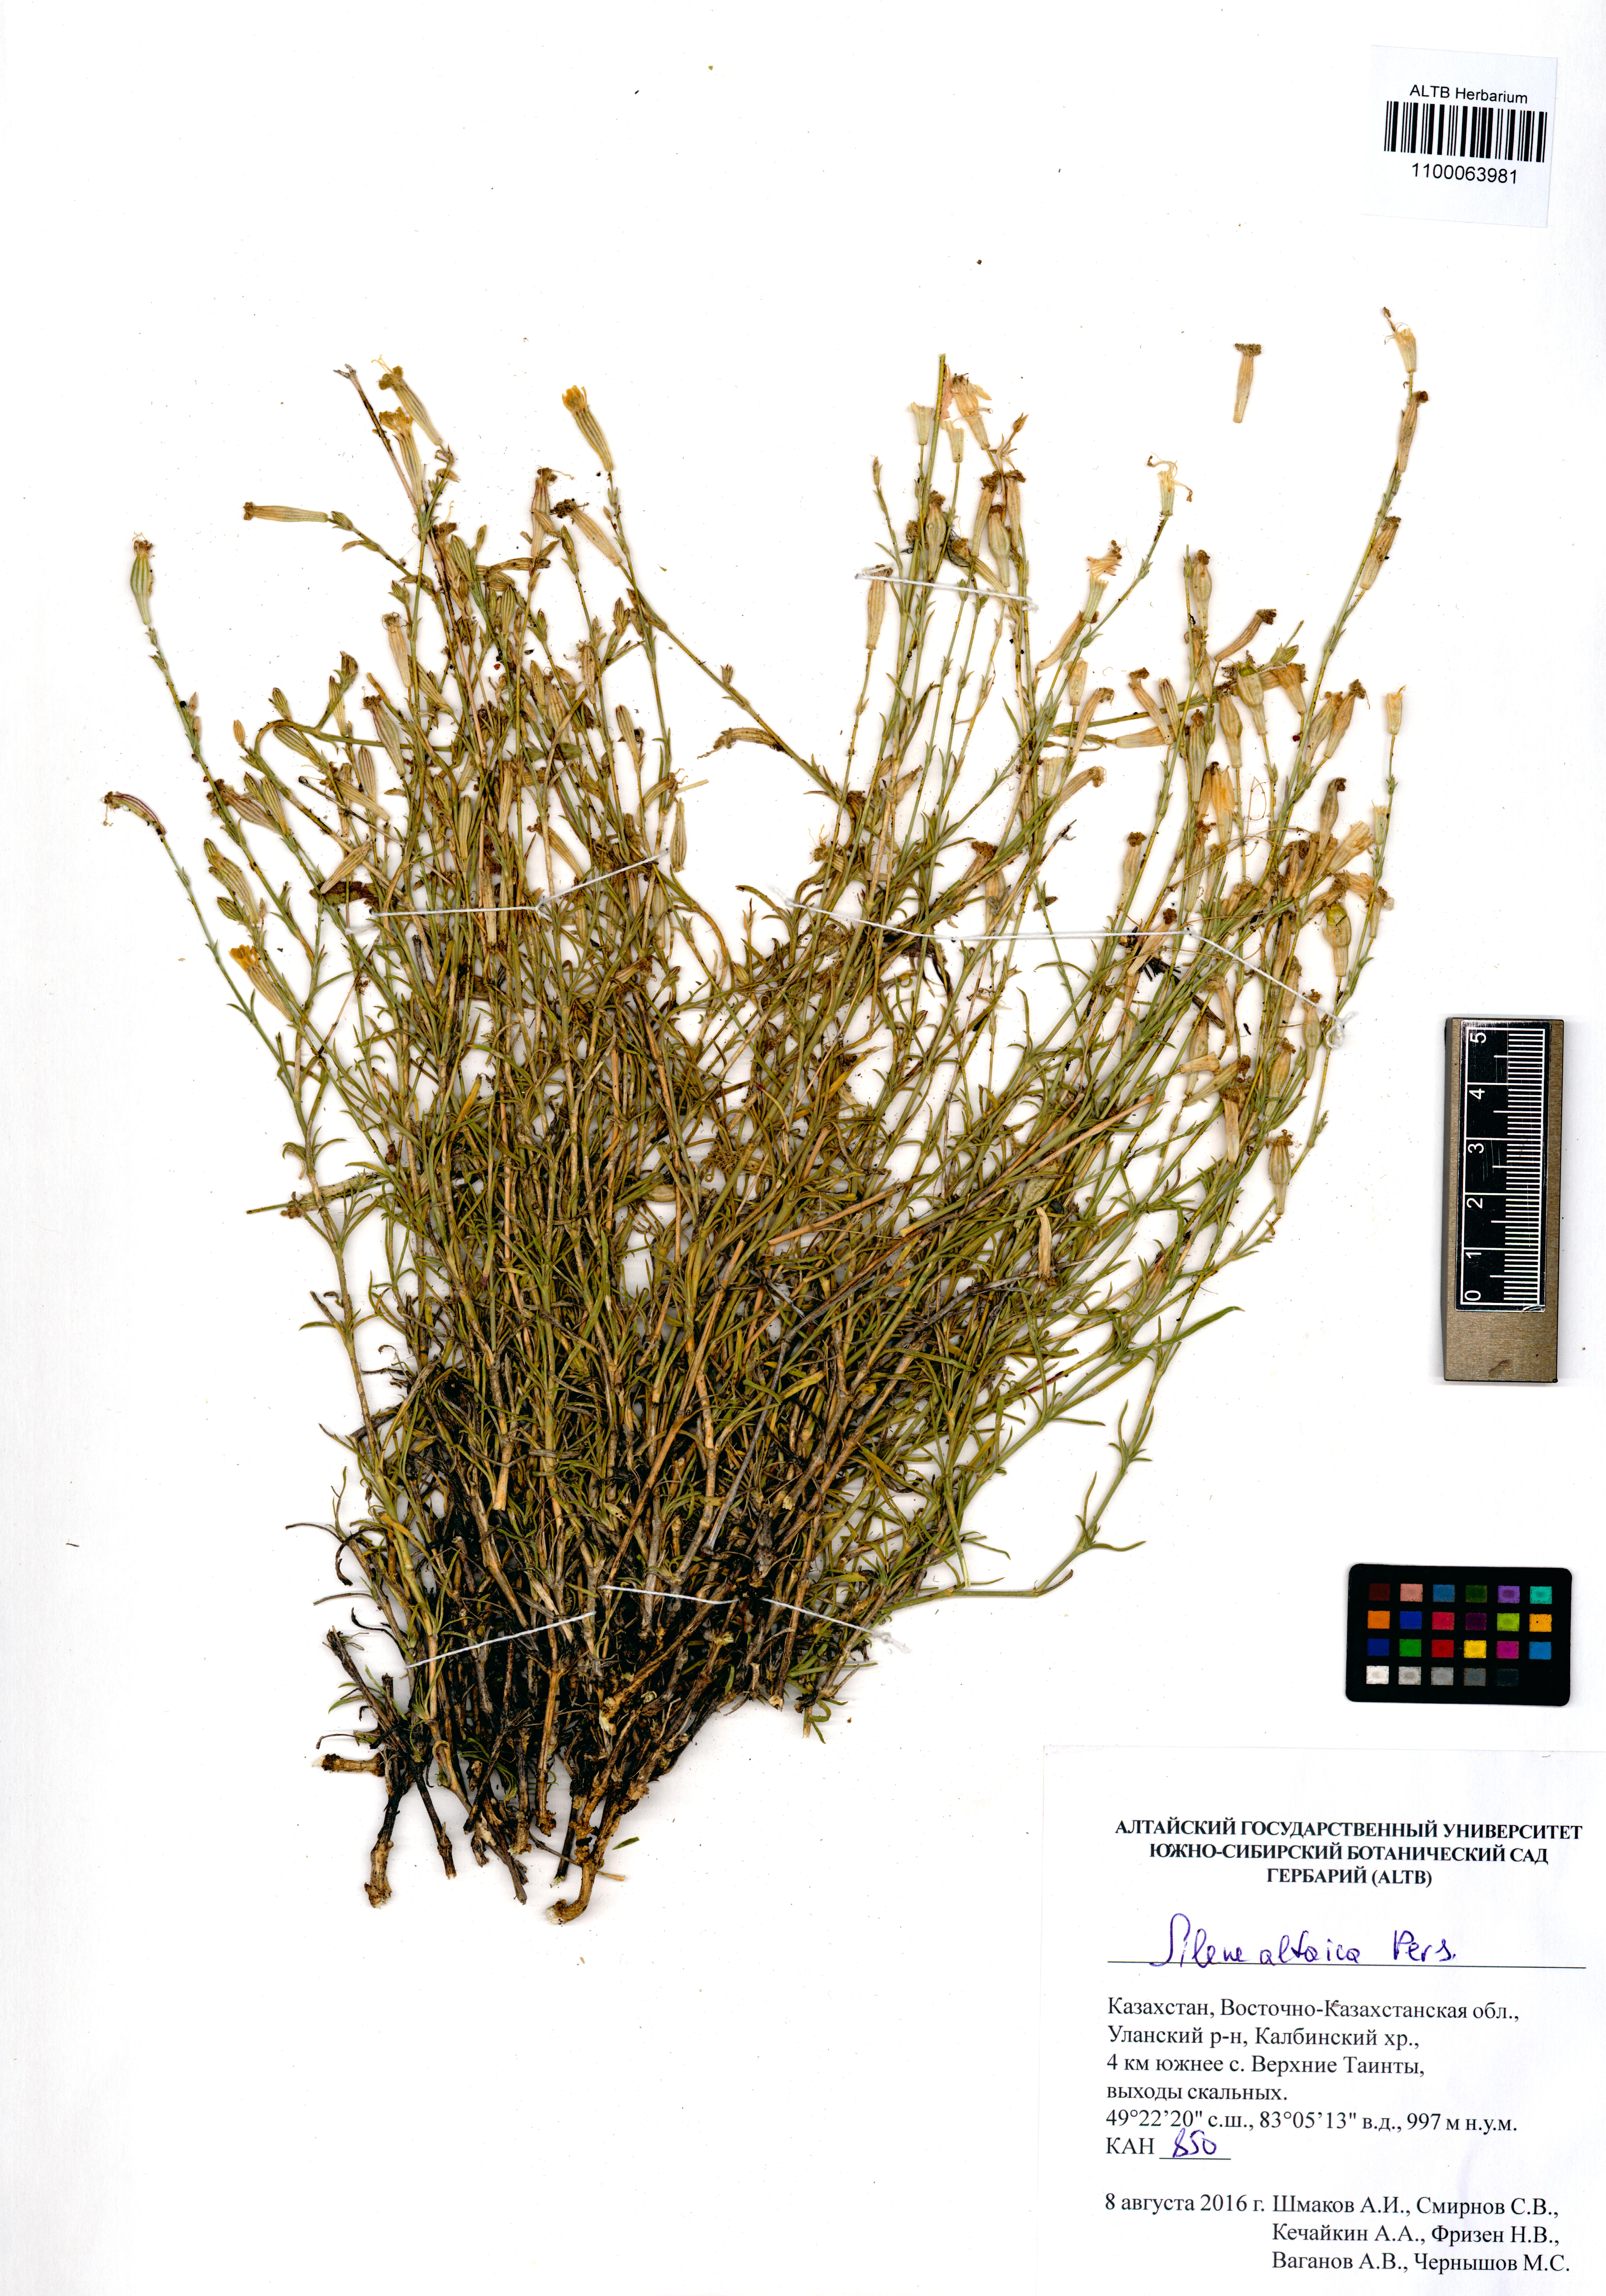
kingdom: Plantae
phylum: Tracheophyta
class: Magnoliopsida
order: Caryophyllales
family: Caryophyllaceae
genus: Silene
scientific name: Silene altaica
